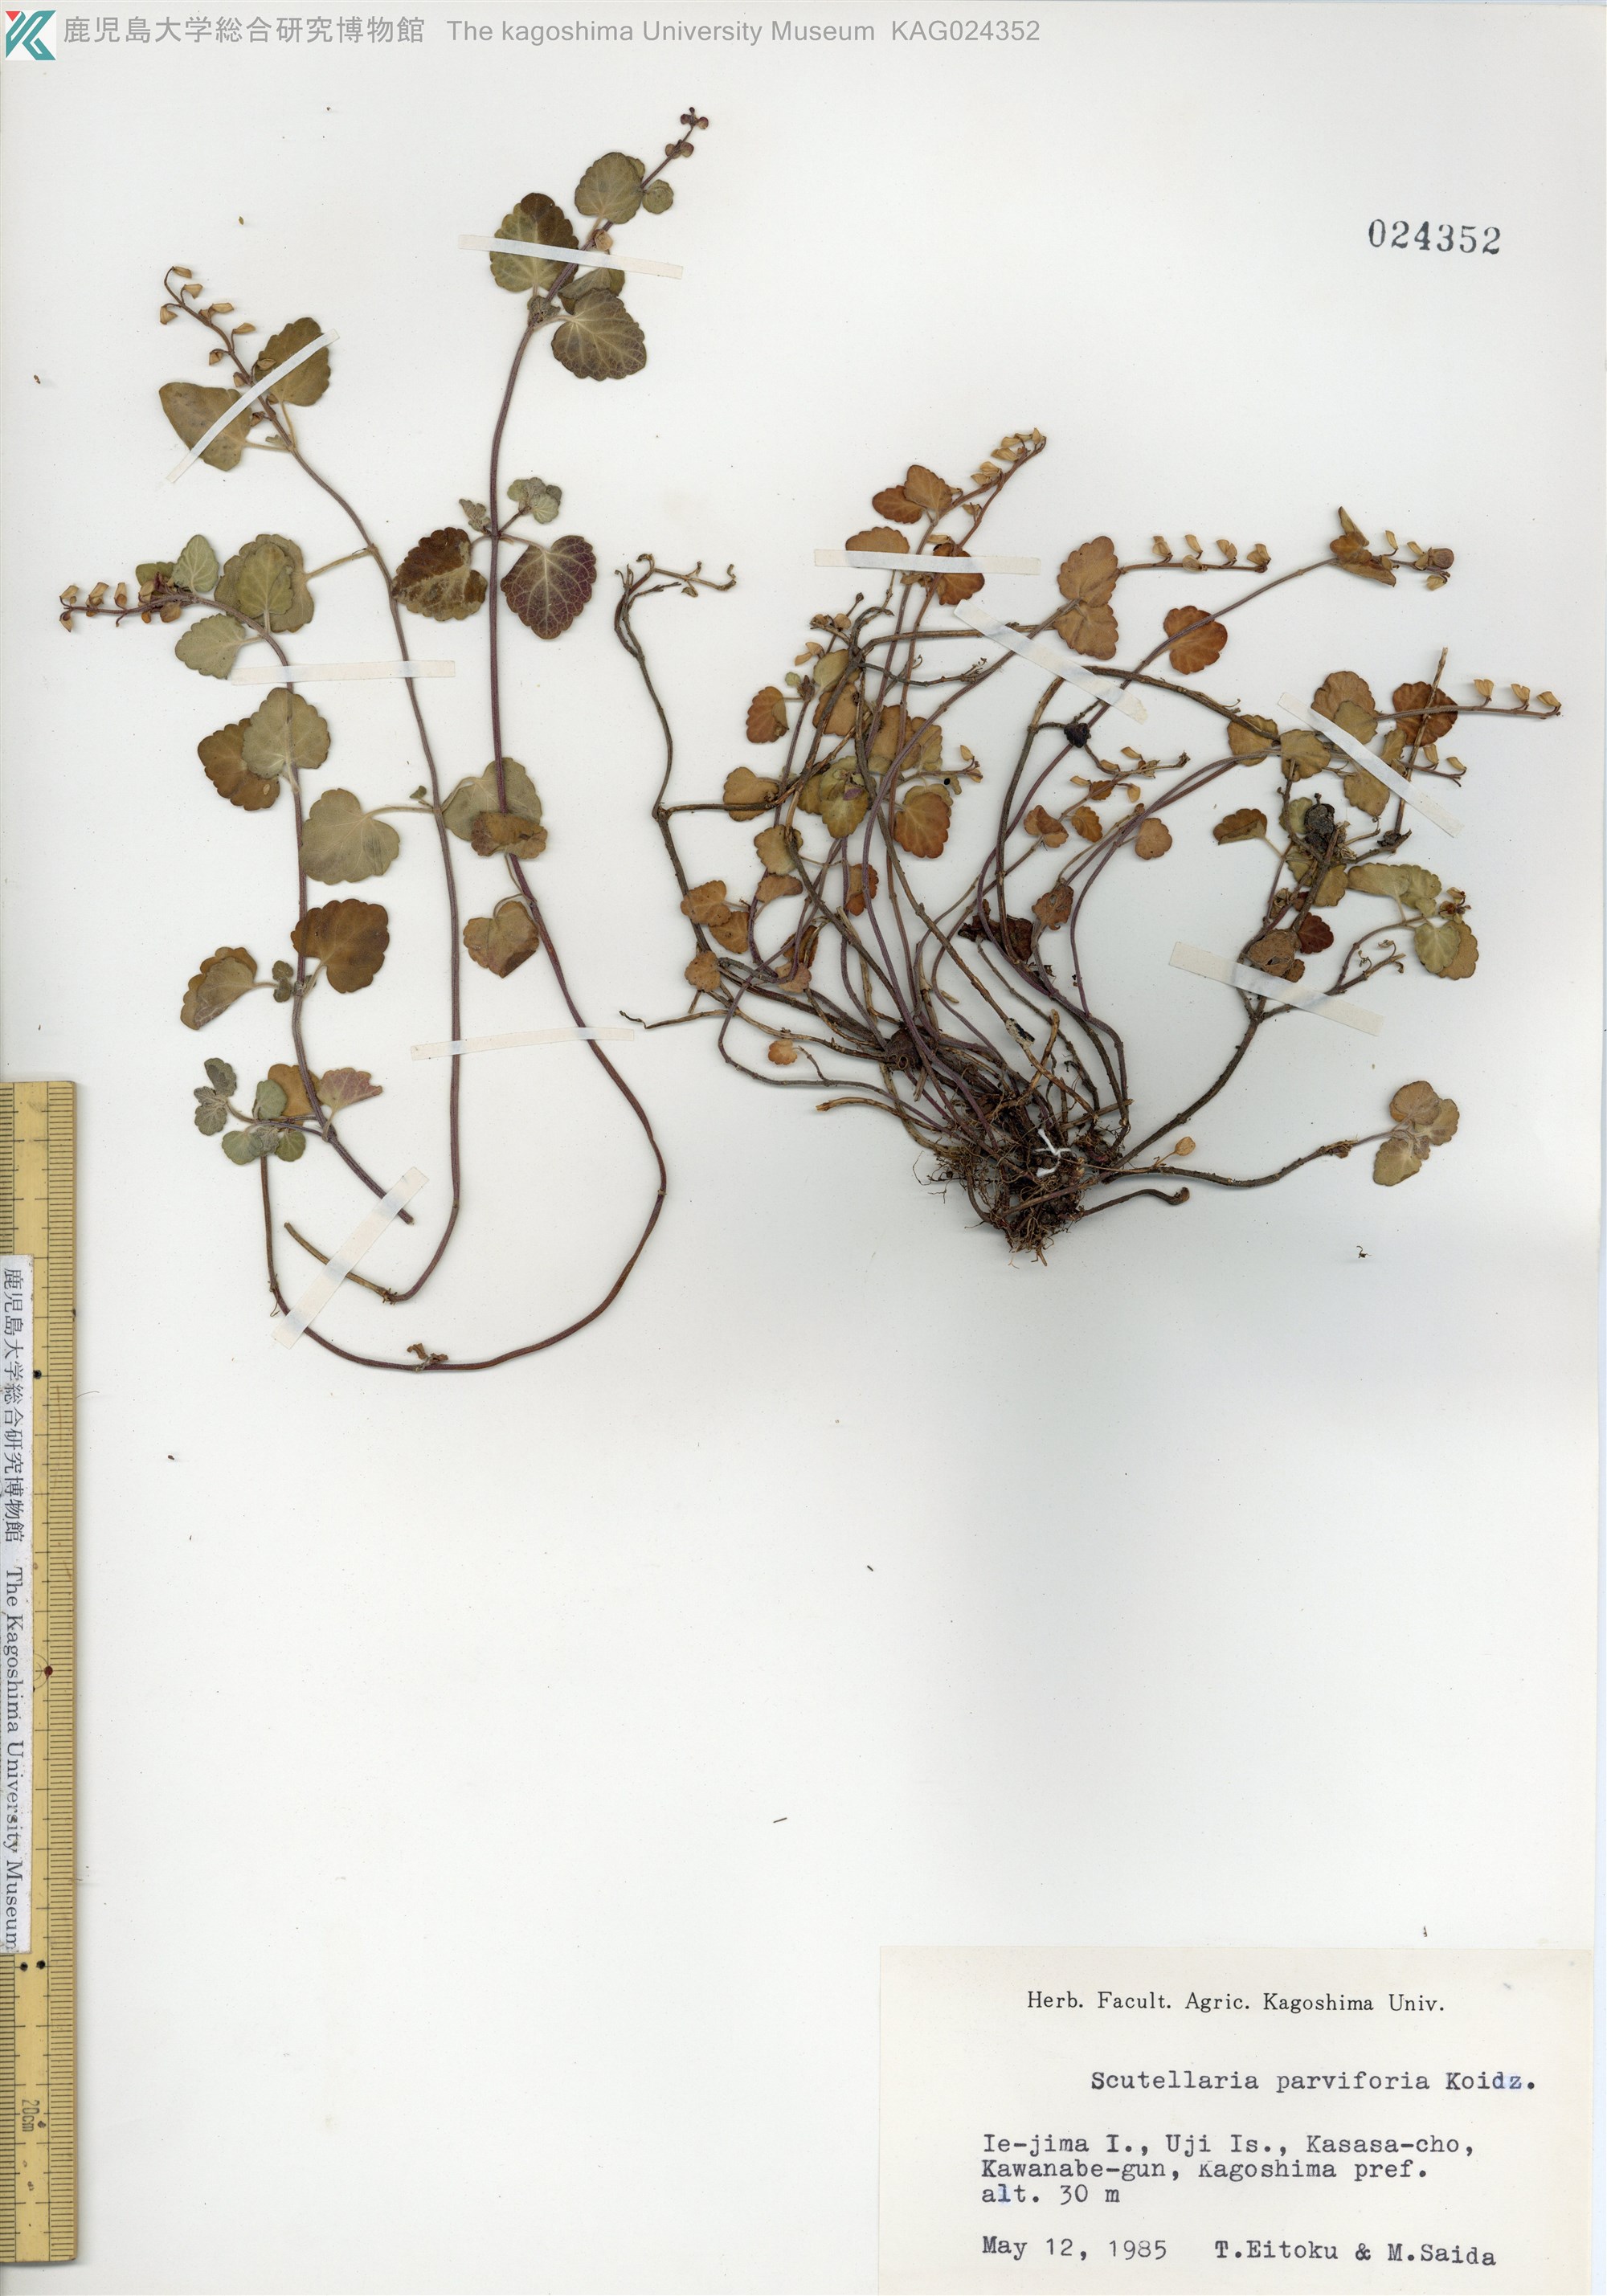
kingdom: Plantae
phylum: Tracheophyta
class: Magnoliopsida
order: Lamiales
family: Lamiaceae
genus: Scutellaria
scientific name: Scutellaria indica
